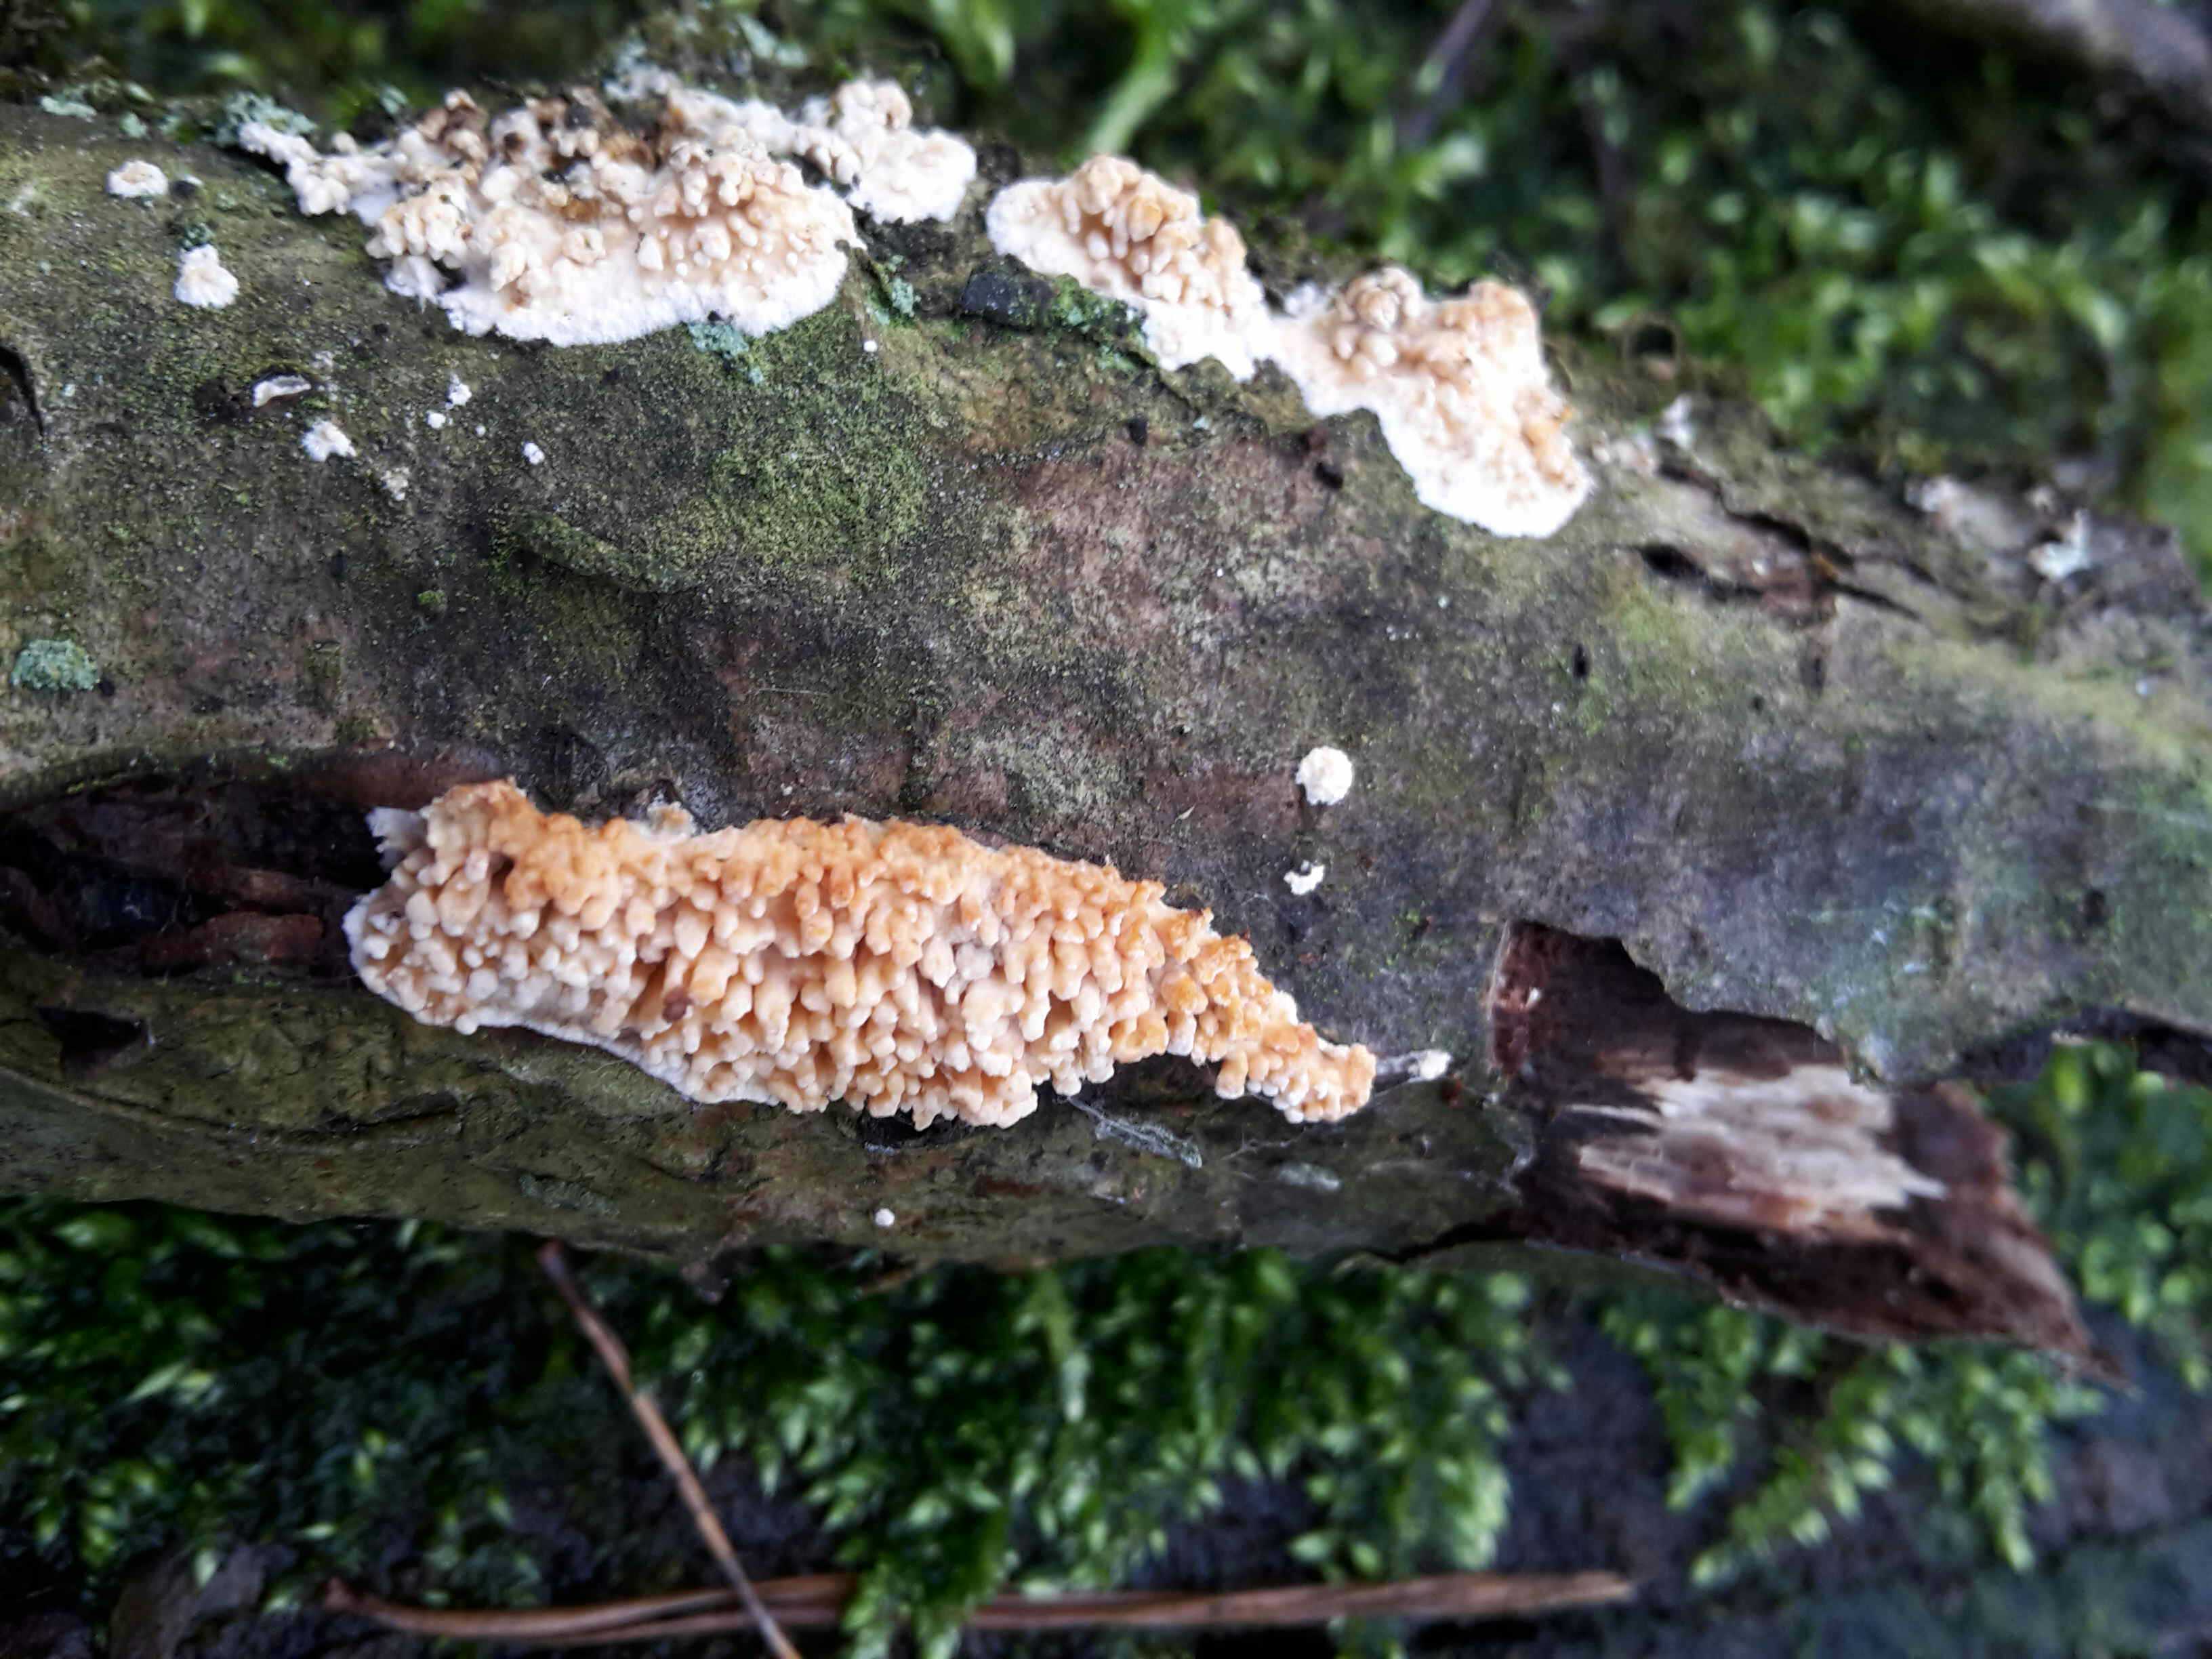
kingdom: Fungi
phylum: Basidiomycota
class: Agaricomycetes
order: Hymenochaetales
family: Schizoporaceae
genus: Xylodon
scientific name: Xylodon radula
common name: grovtandet kalkskind
